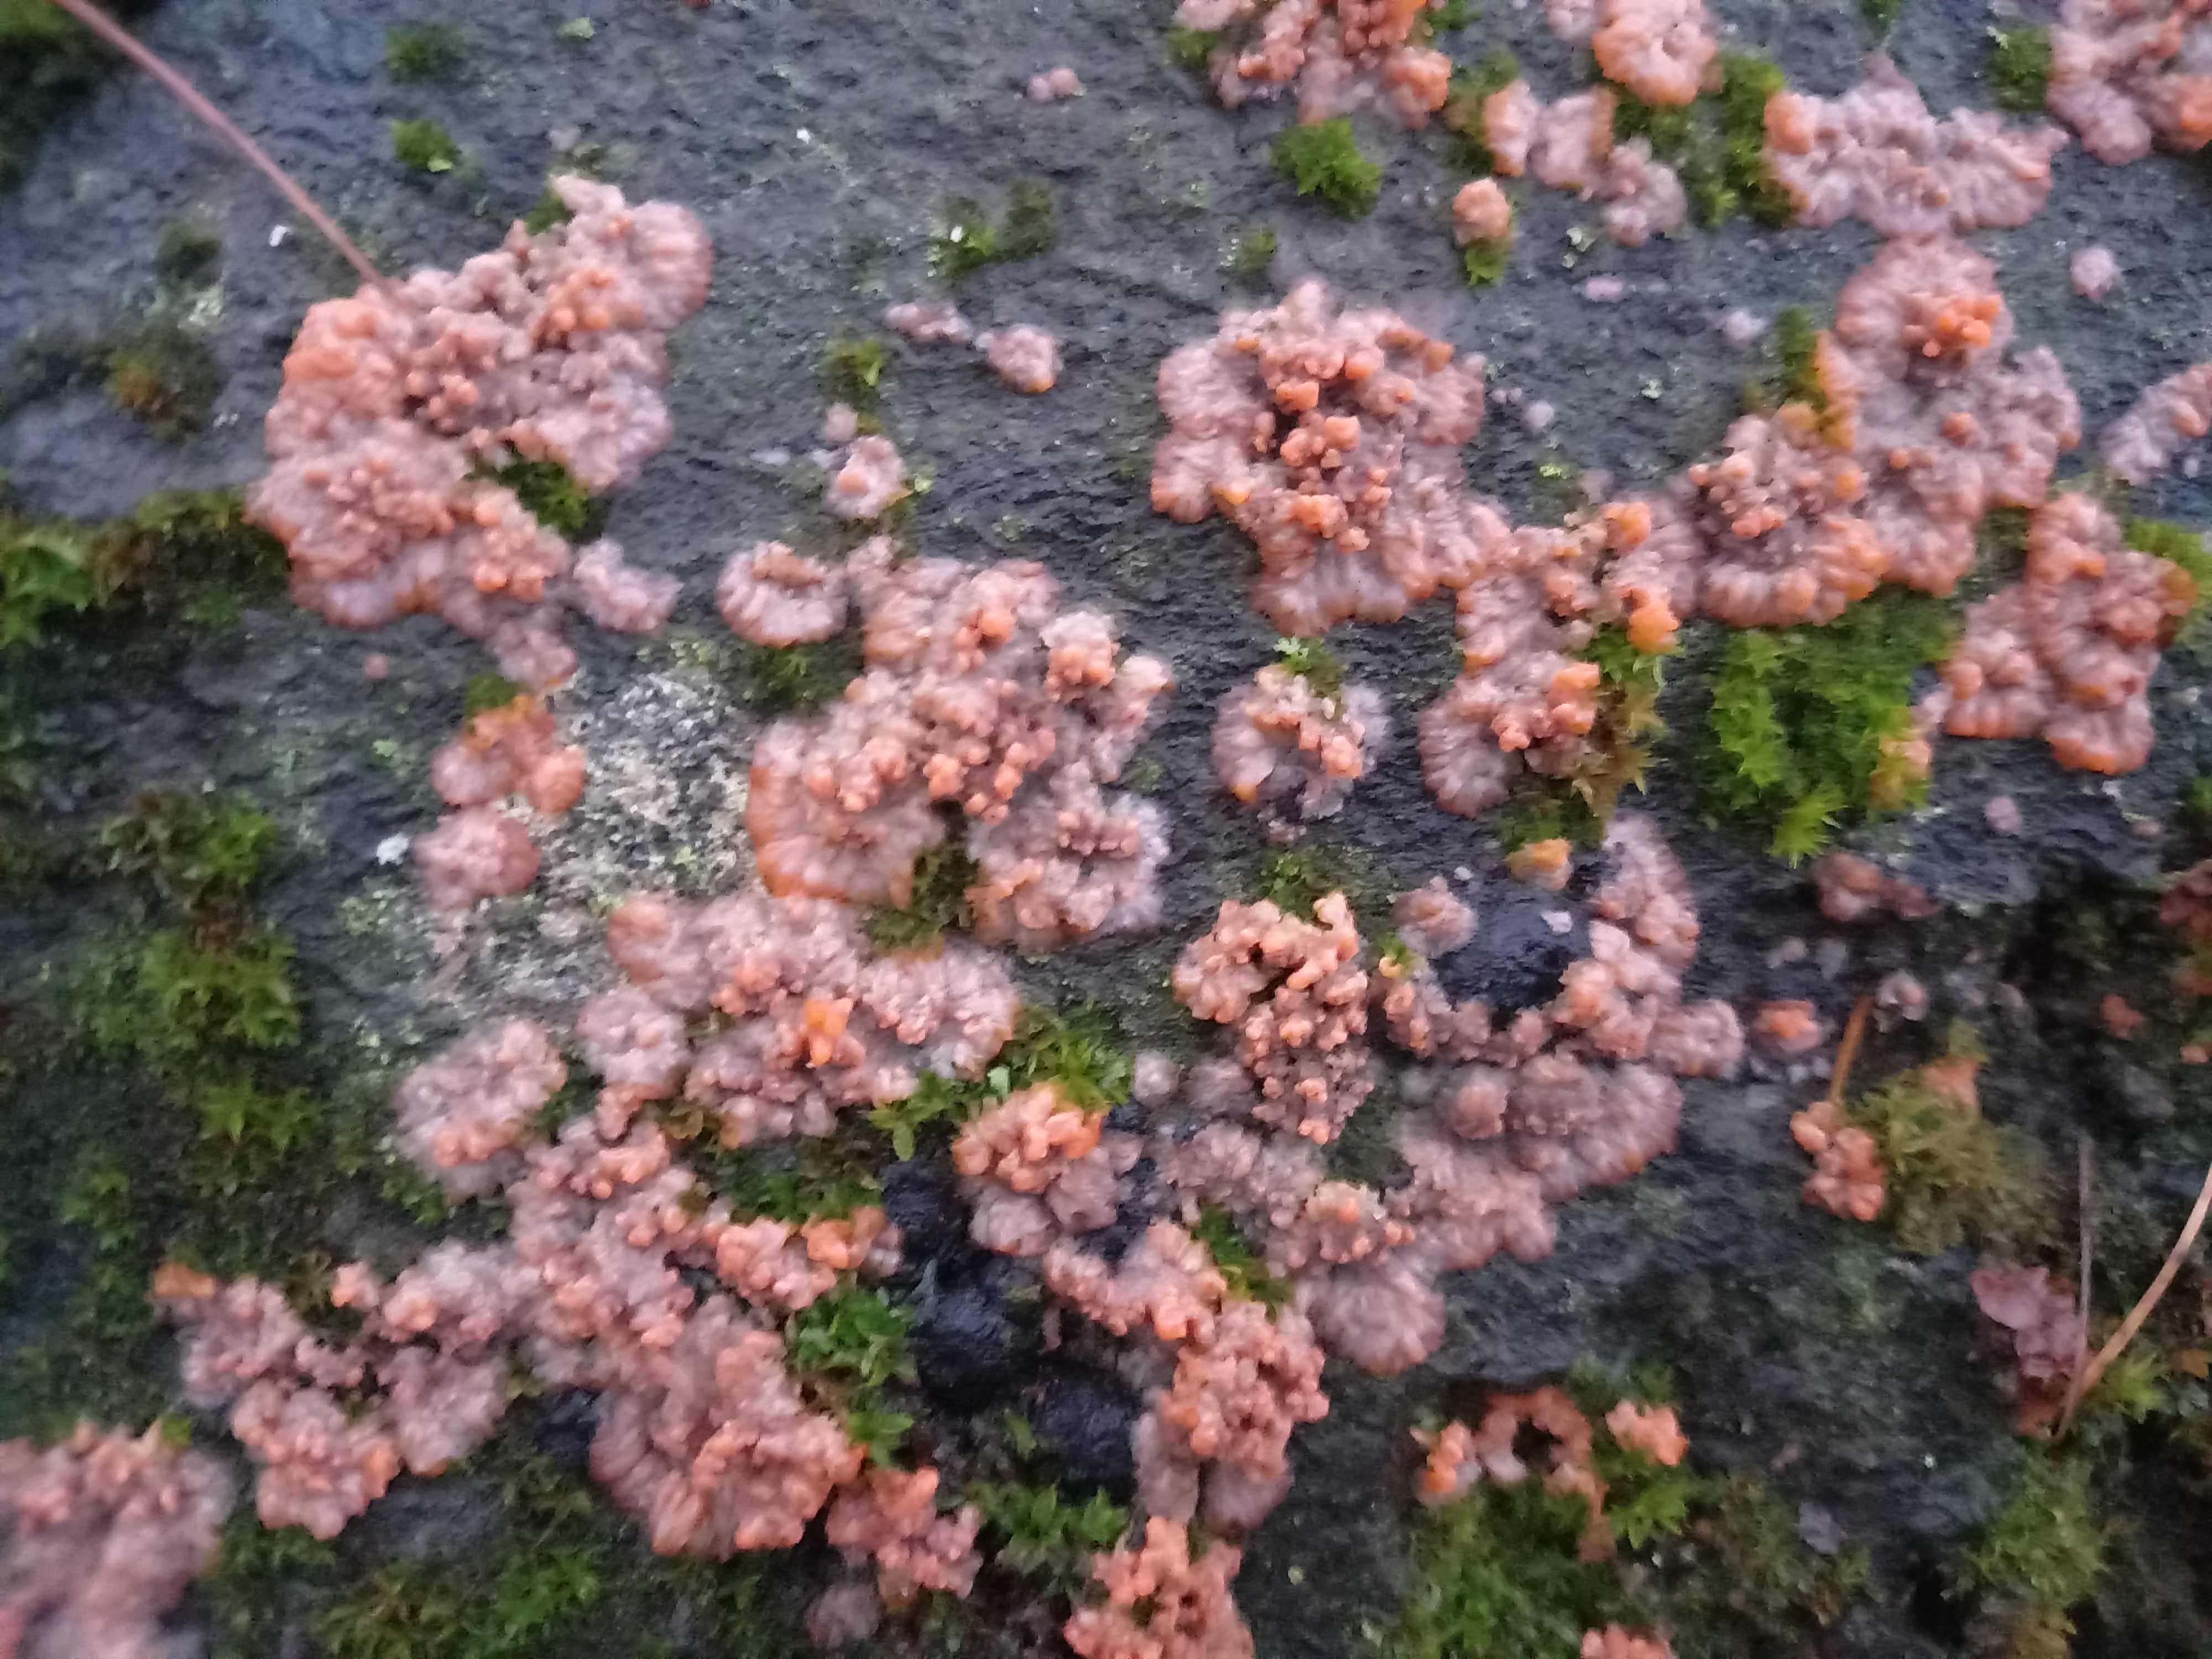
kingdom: Fungi
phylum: Basidiomycota
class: Agaricomycetes
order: Polyporales
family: Meruliaceae
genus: Phlebia
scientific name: Phlebia radiata
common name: stråle-åresvamp
